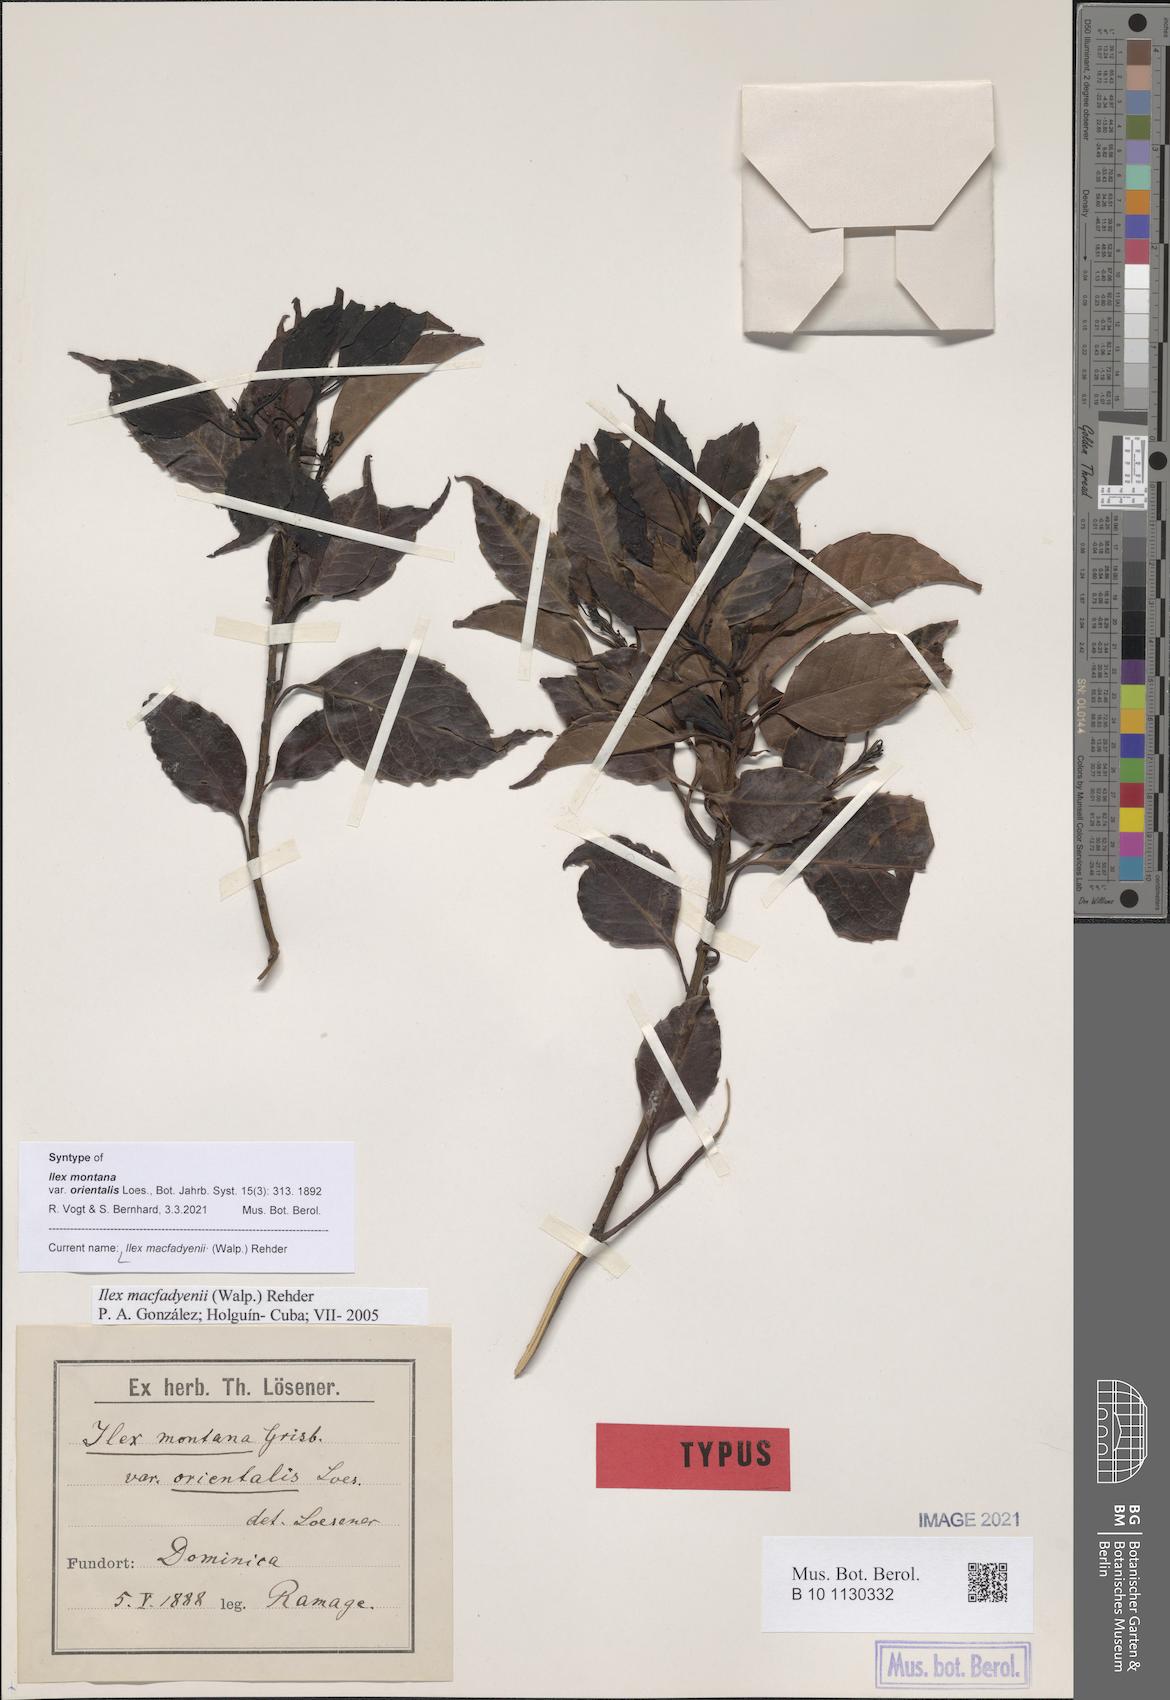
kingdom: Plantae
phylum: Tracheophyta
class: Magnoliopsida
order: Aquifoliales
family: Aquifoliaceae
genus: Ilex
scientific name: Ilex macfadyenii
